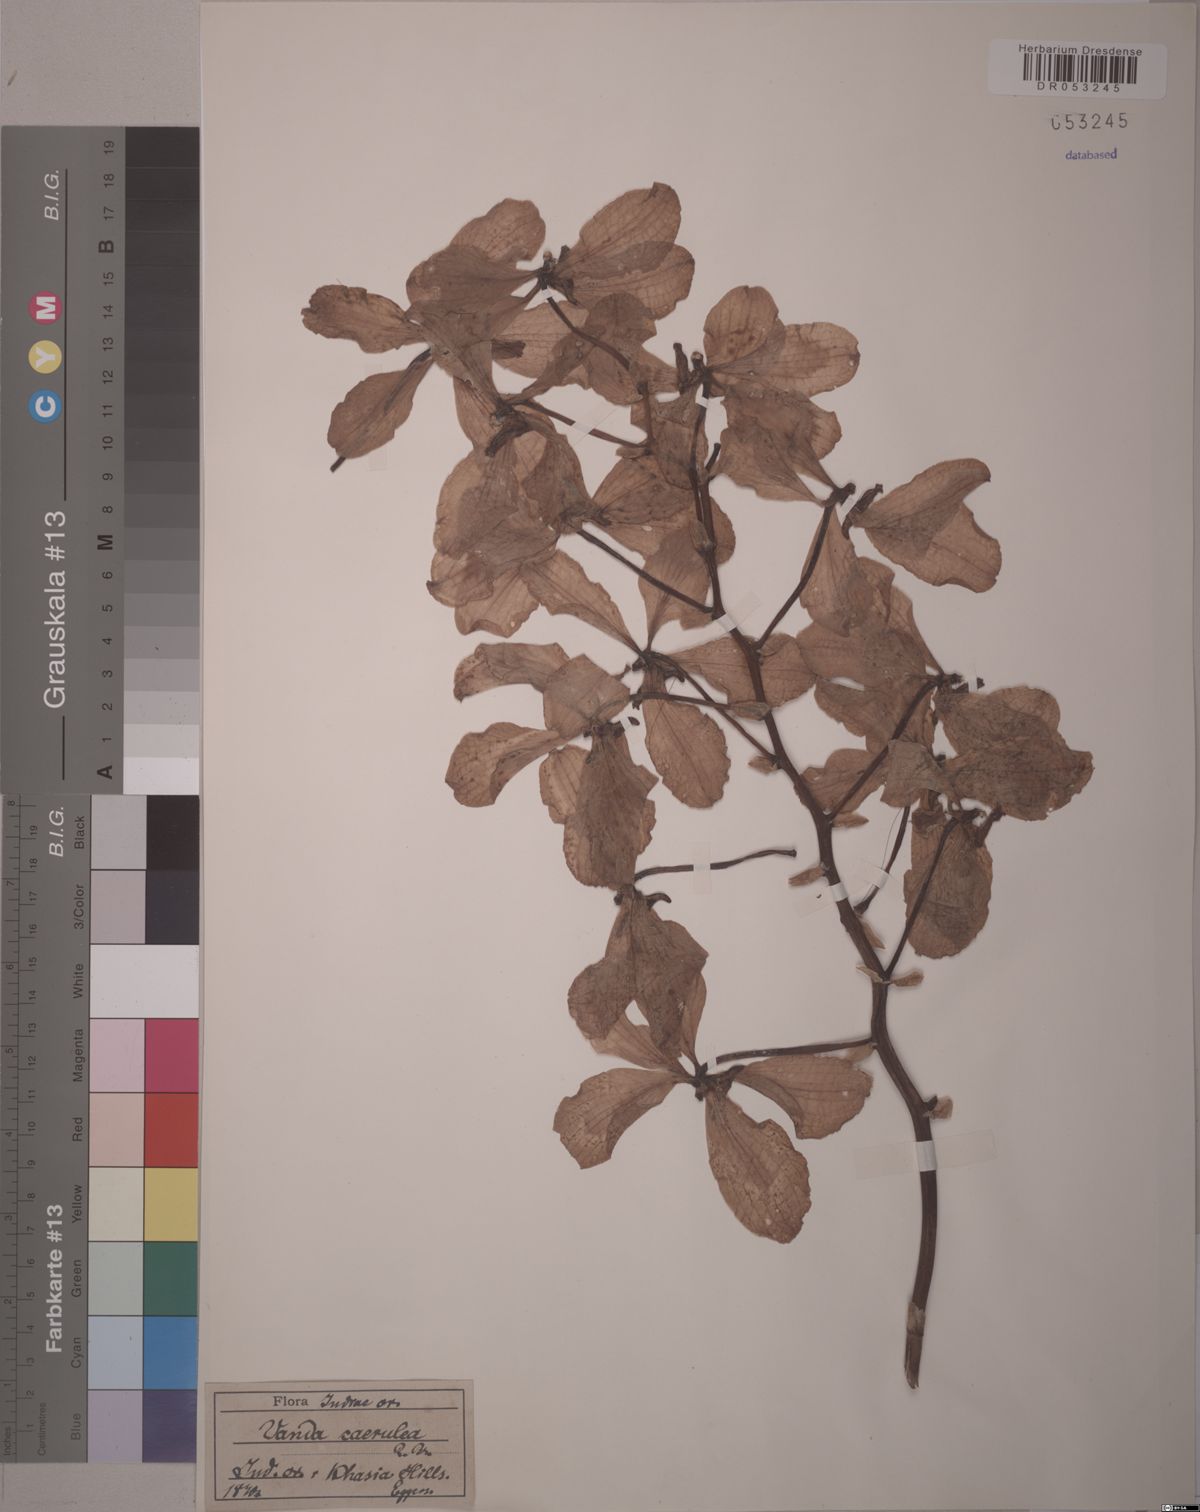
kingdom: Plantae
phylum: Tracheophyta
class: Liliopsida
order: Asparagales
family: Orchidaceae
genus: Vanda
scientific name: Vanda coerulea
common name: Blue orchid
